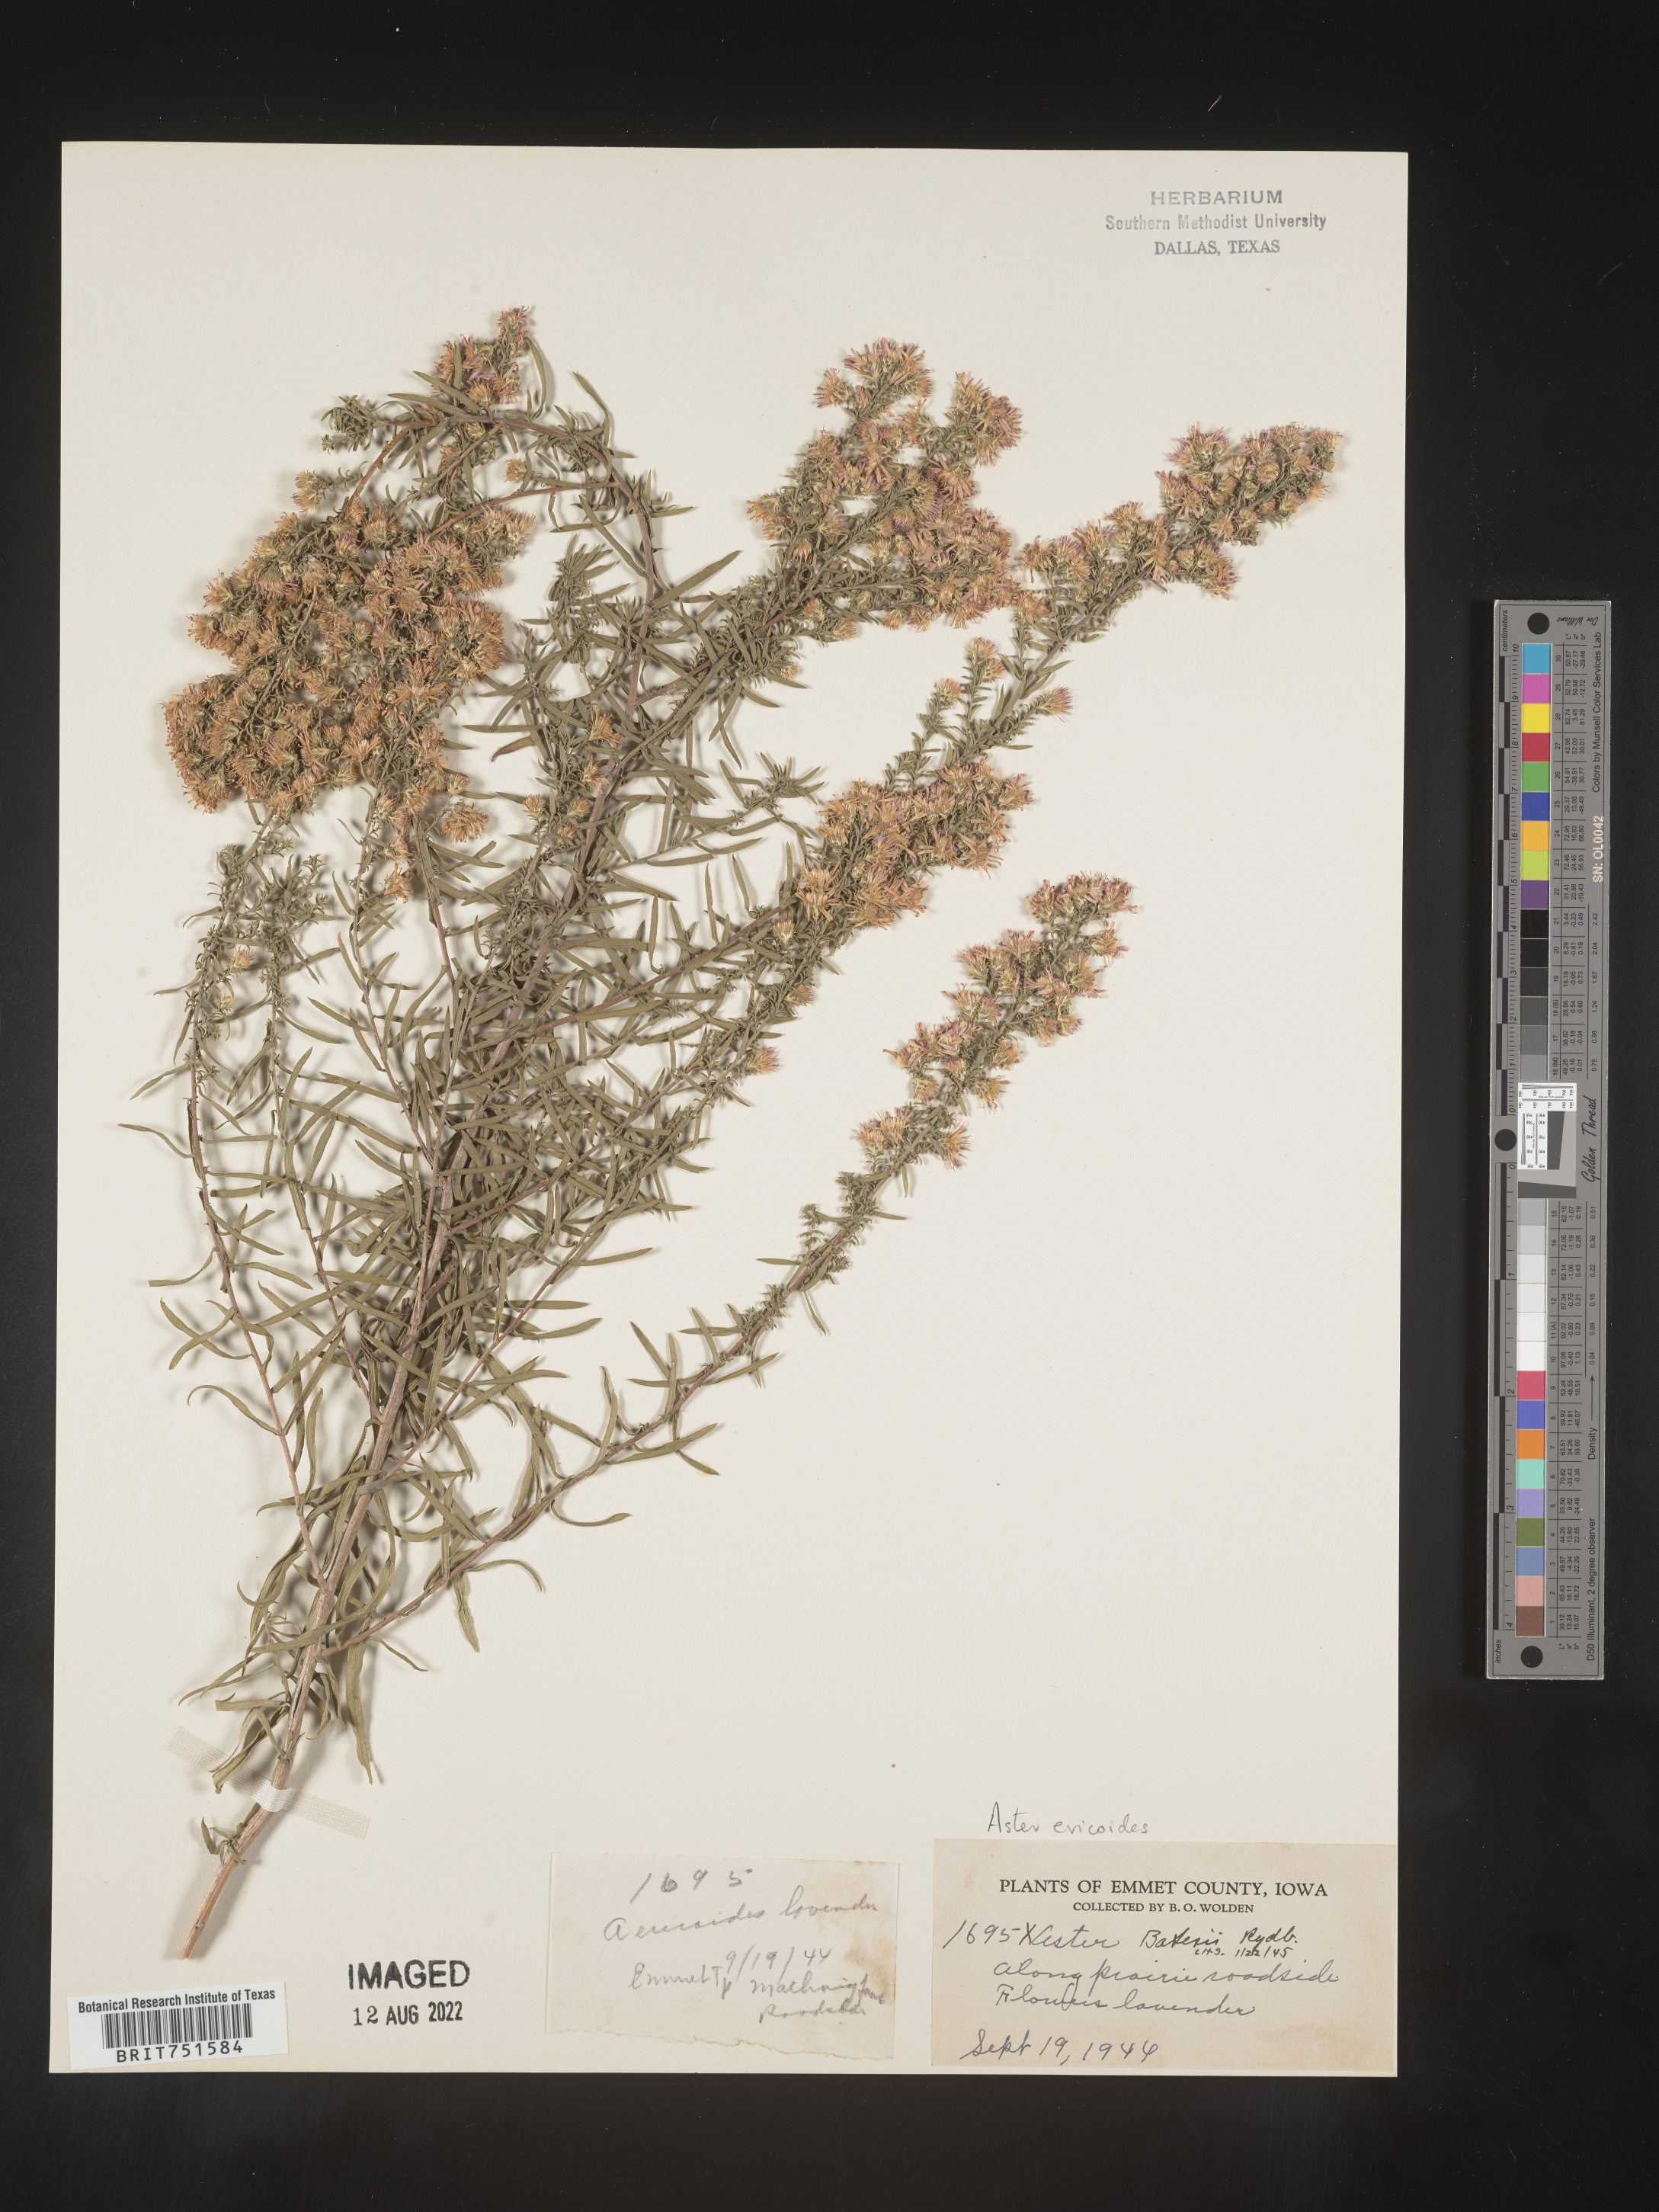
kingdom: Plantae
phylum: Tracheophyta
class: Magnoliopsida
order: Asterales
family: Asteraceae
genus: Symphyotrichum
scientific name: Symphyotrichum
